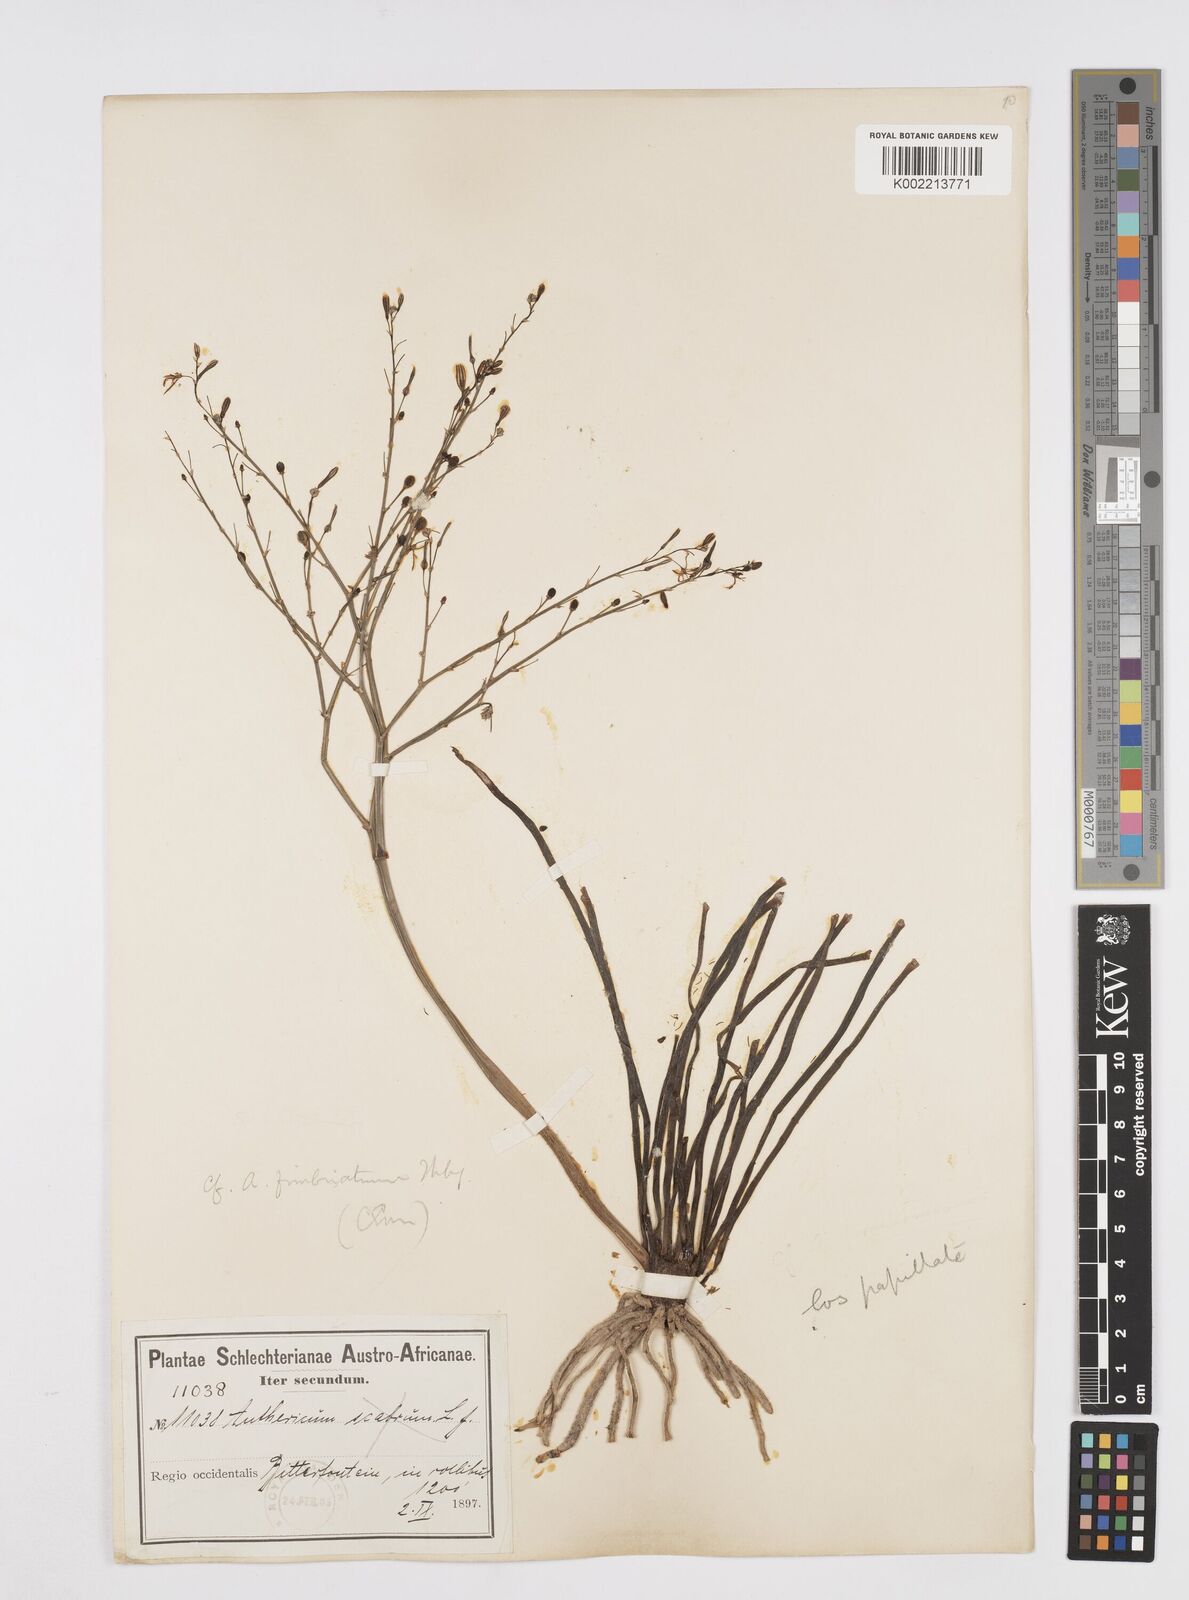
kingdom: Plantae
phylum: Tracheophyta
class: Liliopsida
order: Asparagales
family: Asphodelaceae
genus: Trachyandra
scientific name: Trachyandra revoluta
